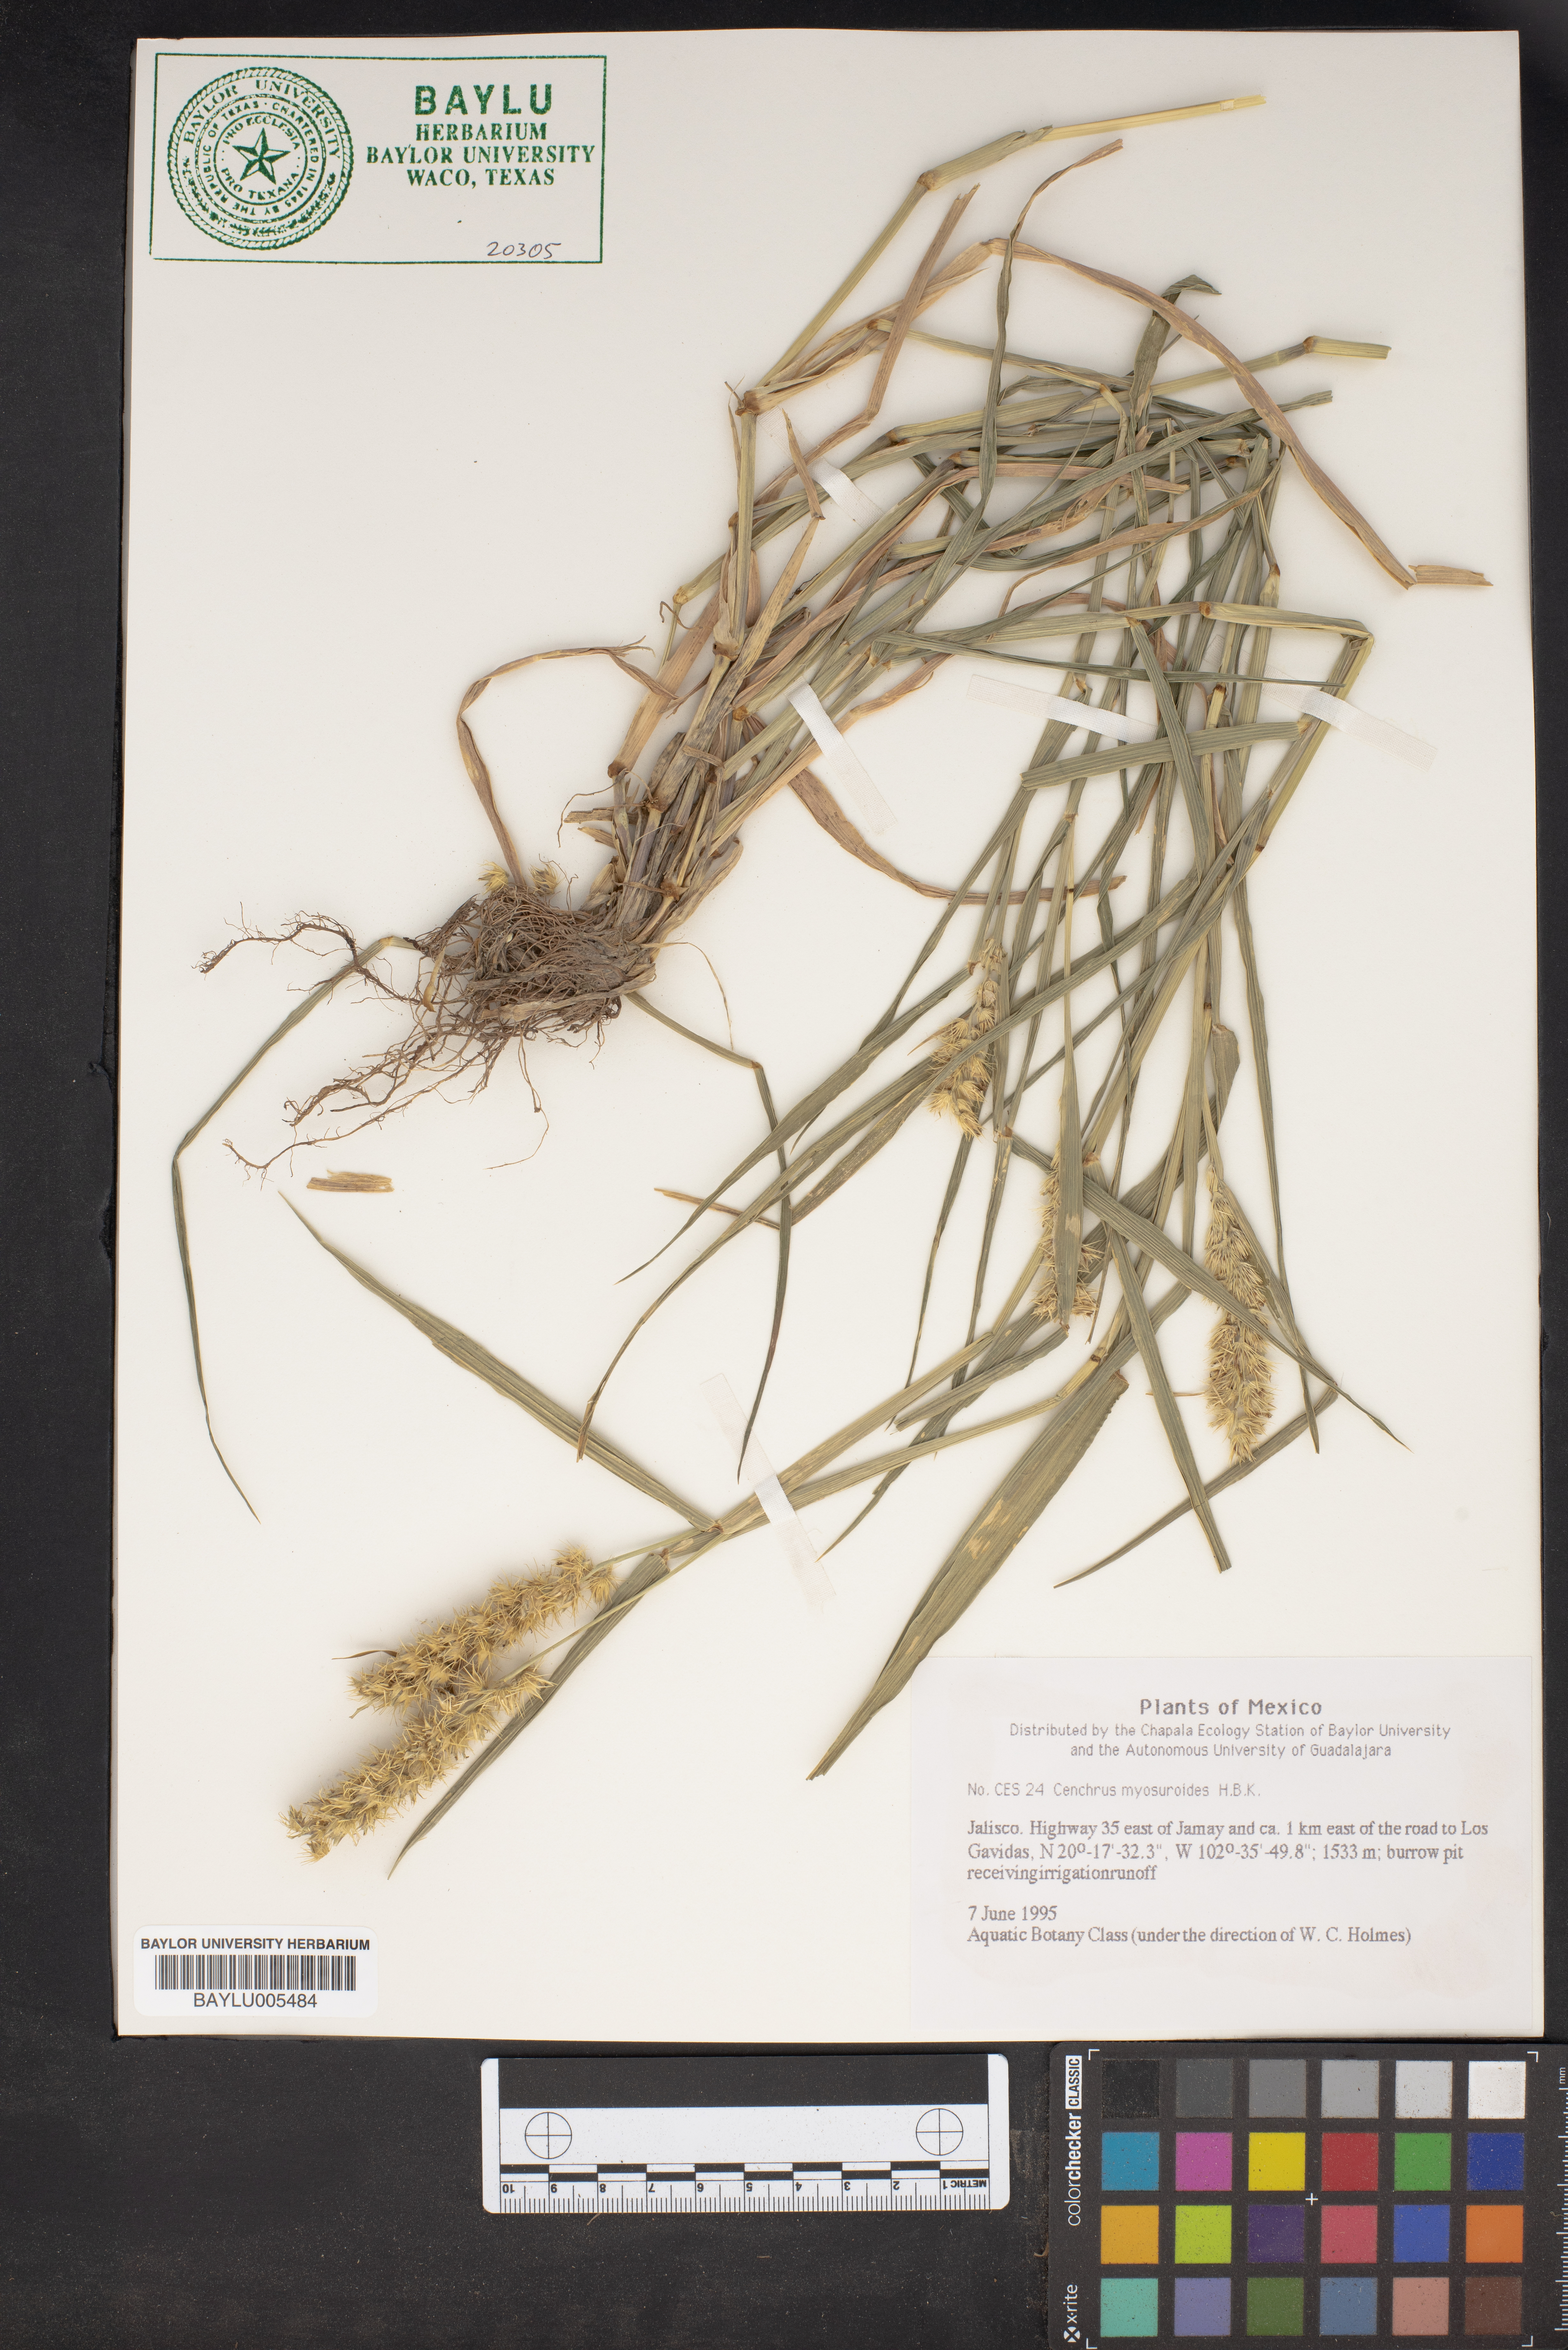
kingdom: Plantae
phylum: Tracheophyta
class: Liliopsida
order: Poales
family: Poaceae
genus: Cenchrus
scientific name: Cenchrus myosuroides
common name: Big sandbur
